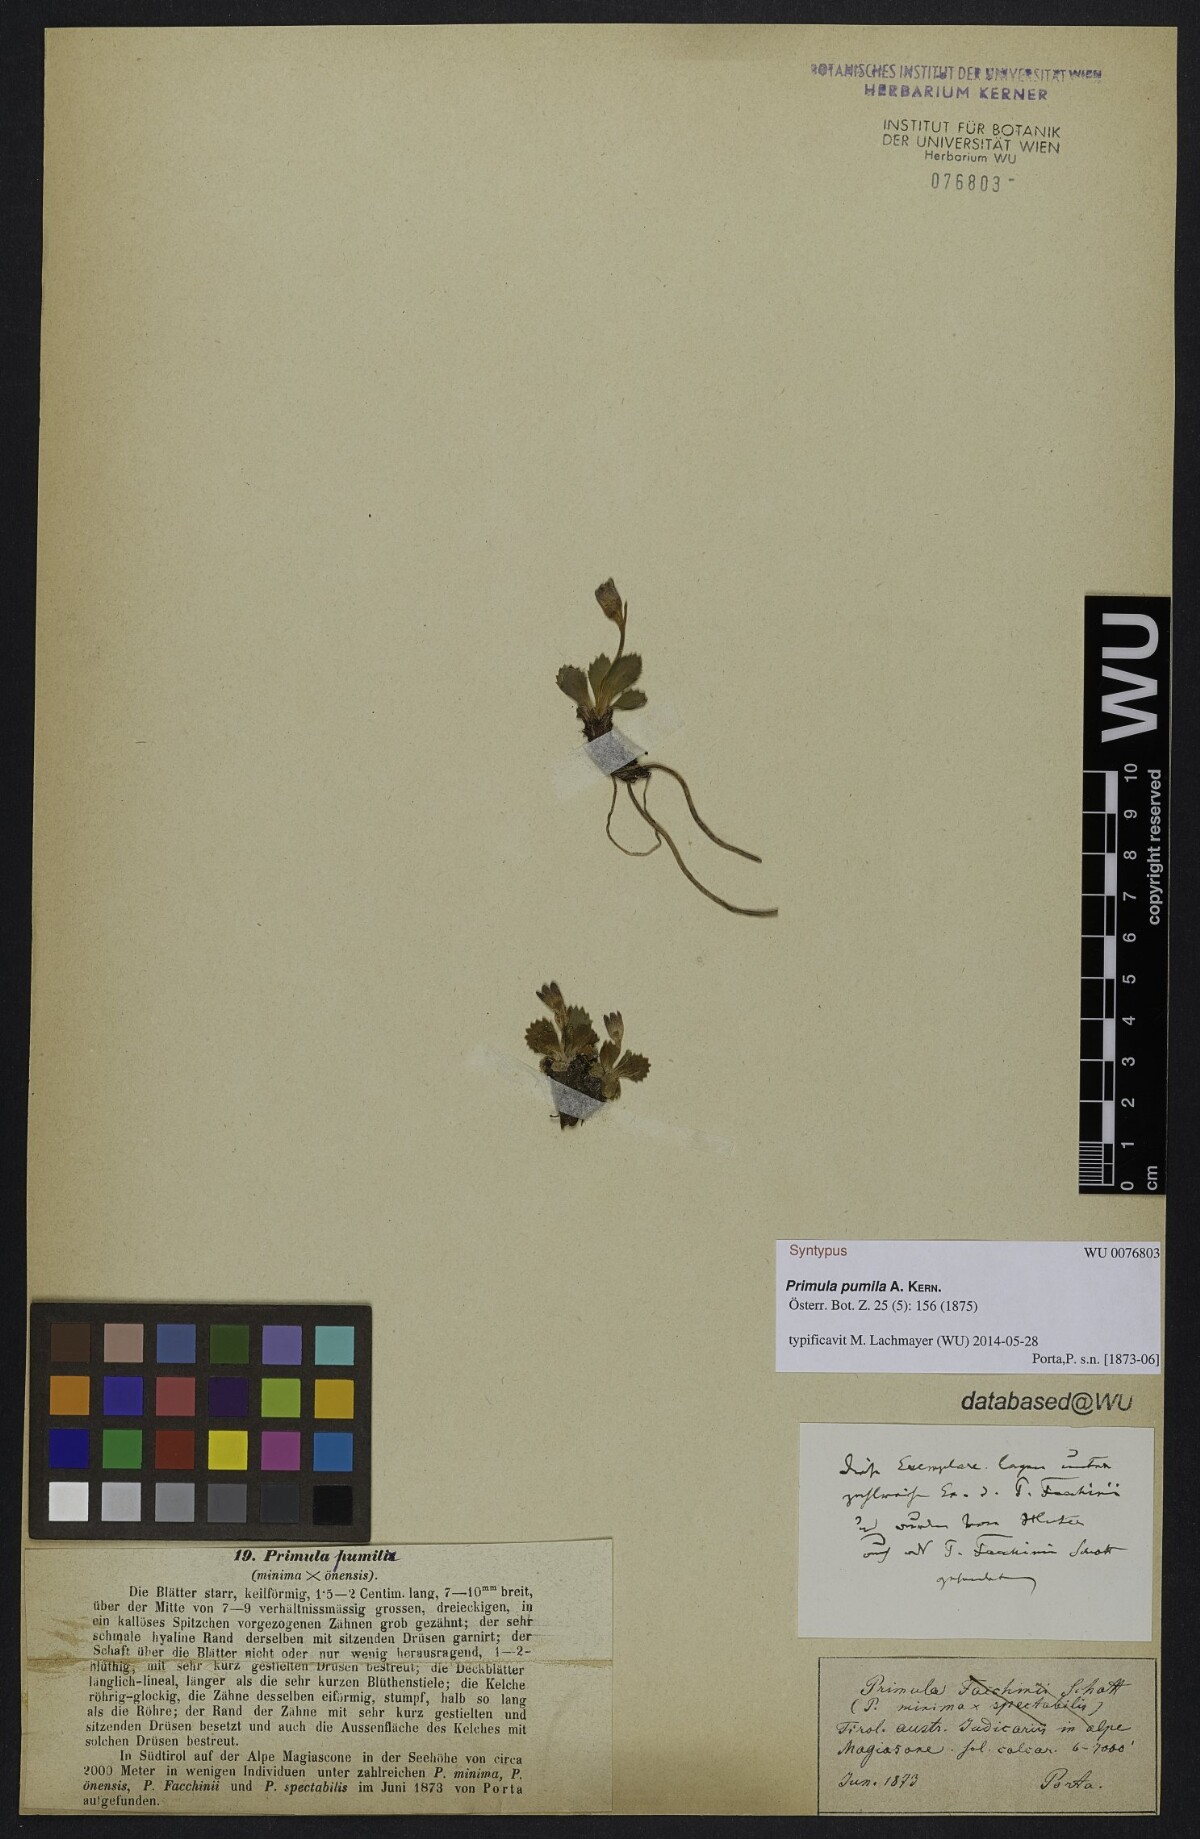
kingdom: Plantae
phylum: Tracheophyta
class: Magnoliopsida
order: Ericales
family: Primulaceae
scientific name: Primulaceae
